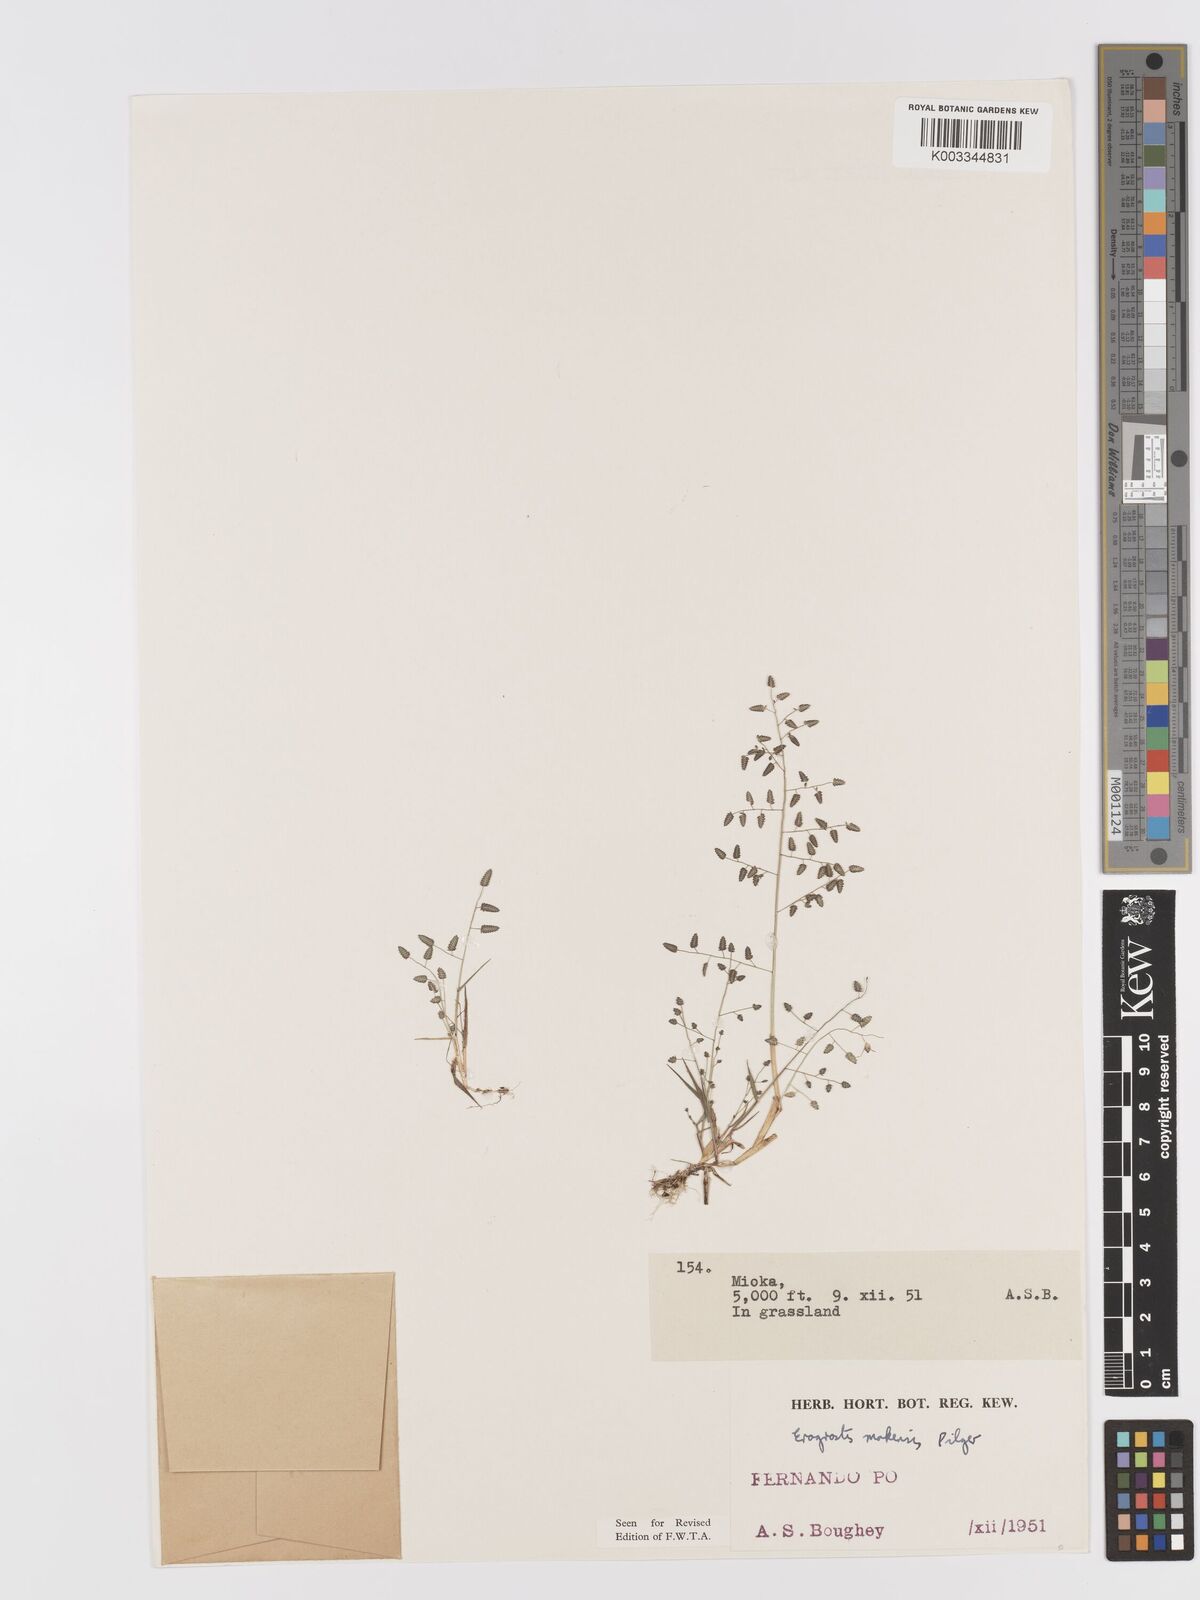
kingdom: Plantae
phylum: Tracheophyta
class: Liliopsida
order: Poales
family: Poaceae
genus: Eragrostis
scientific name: Eragrostis mokensis
